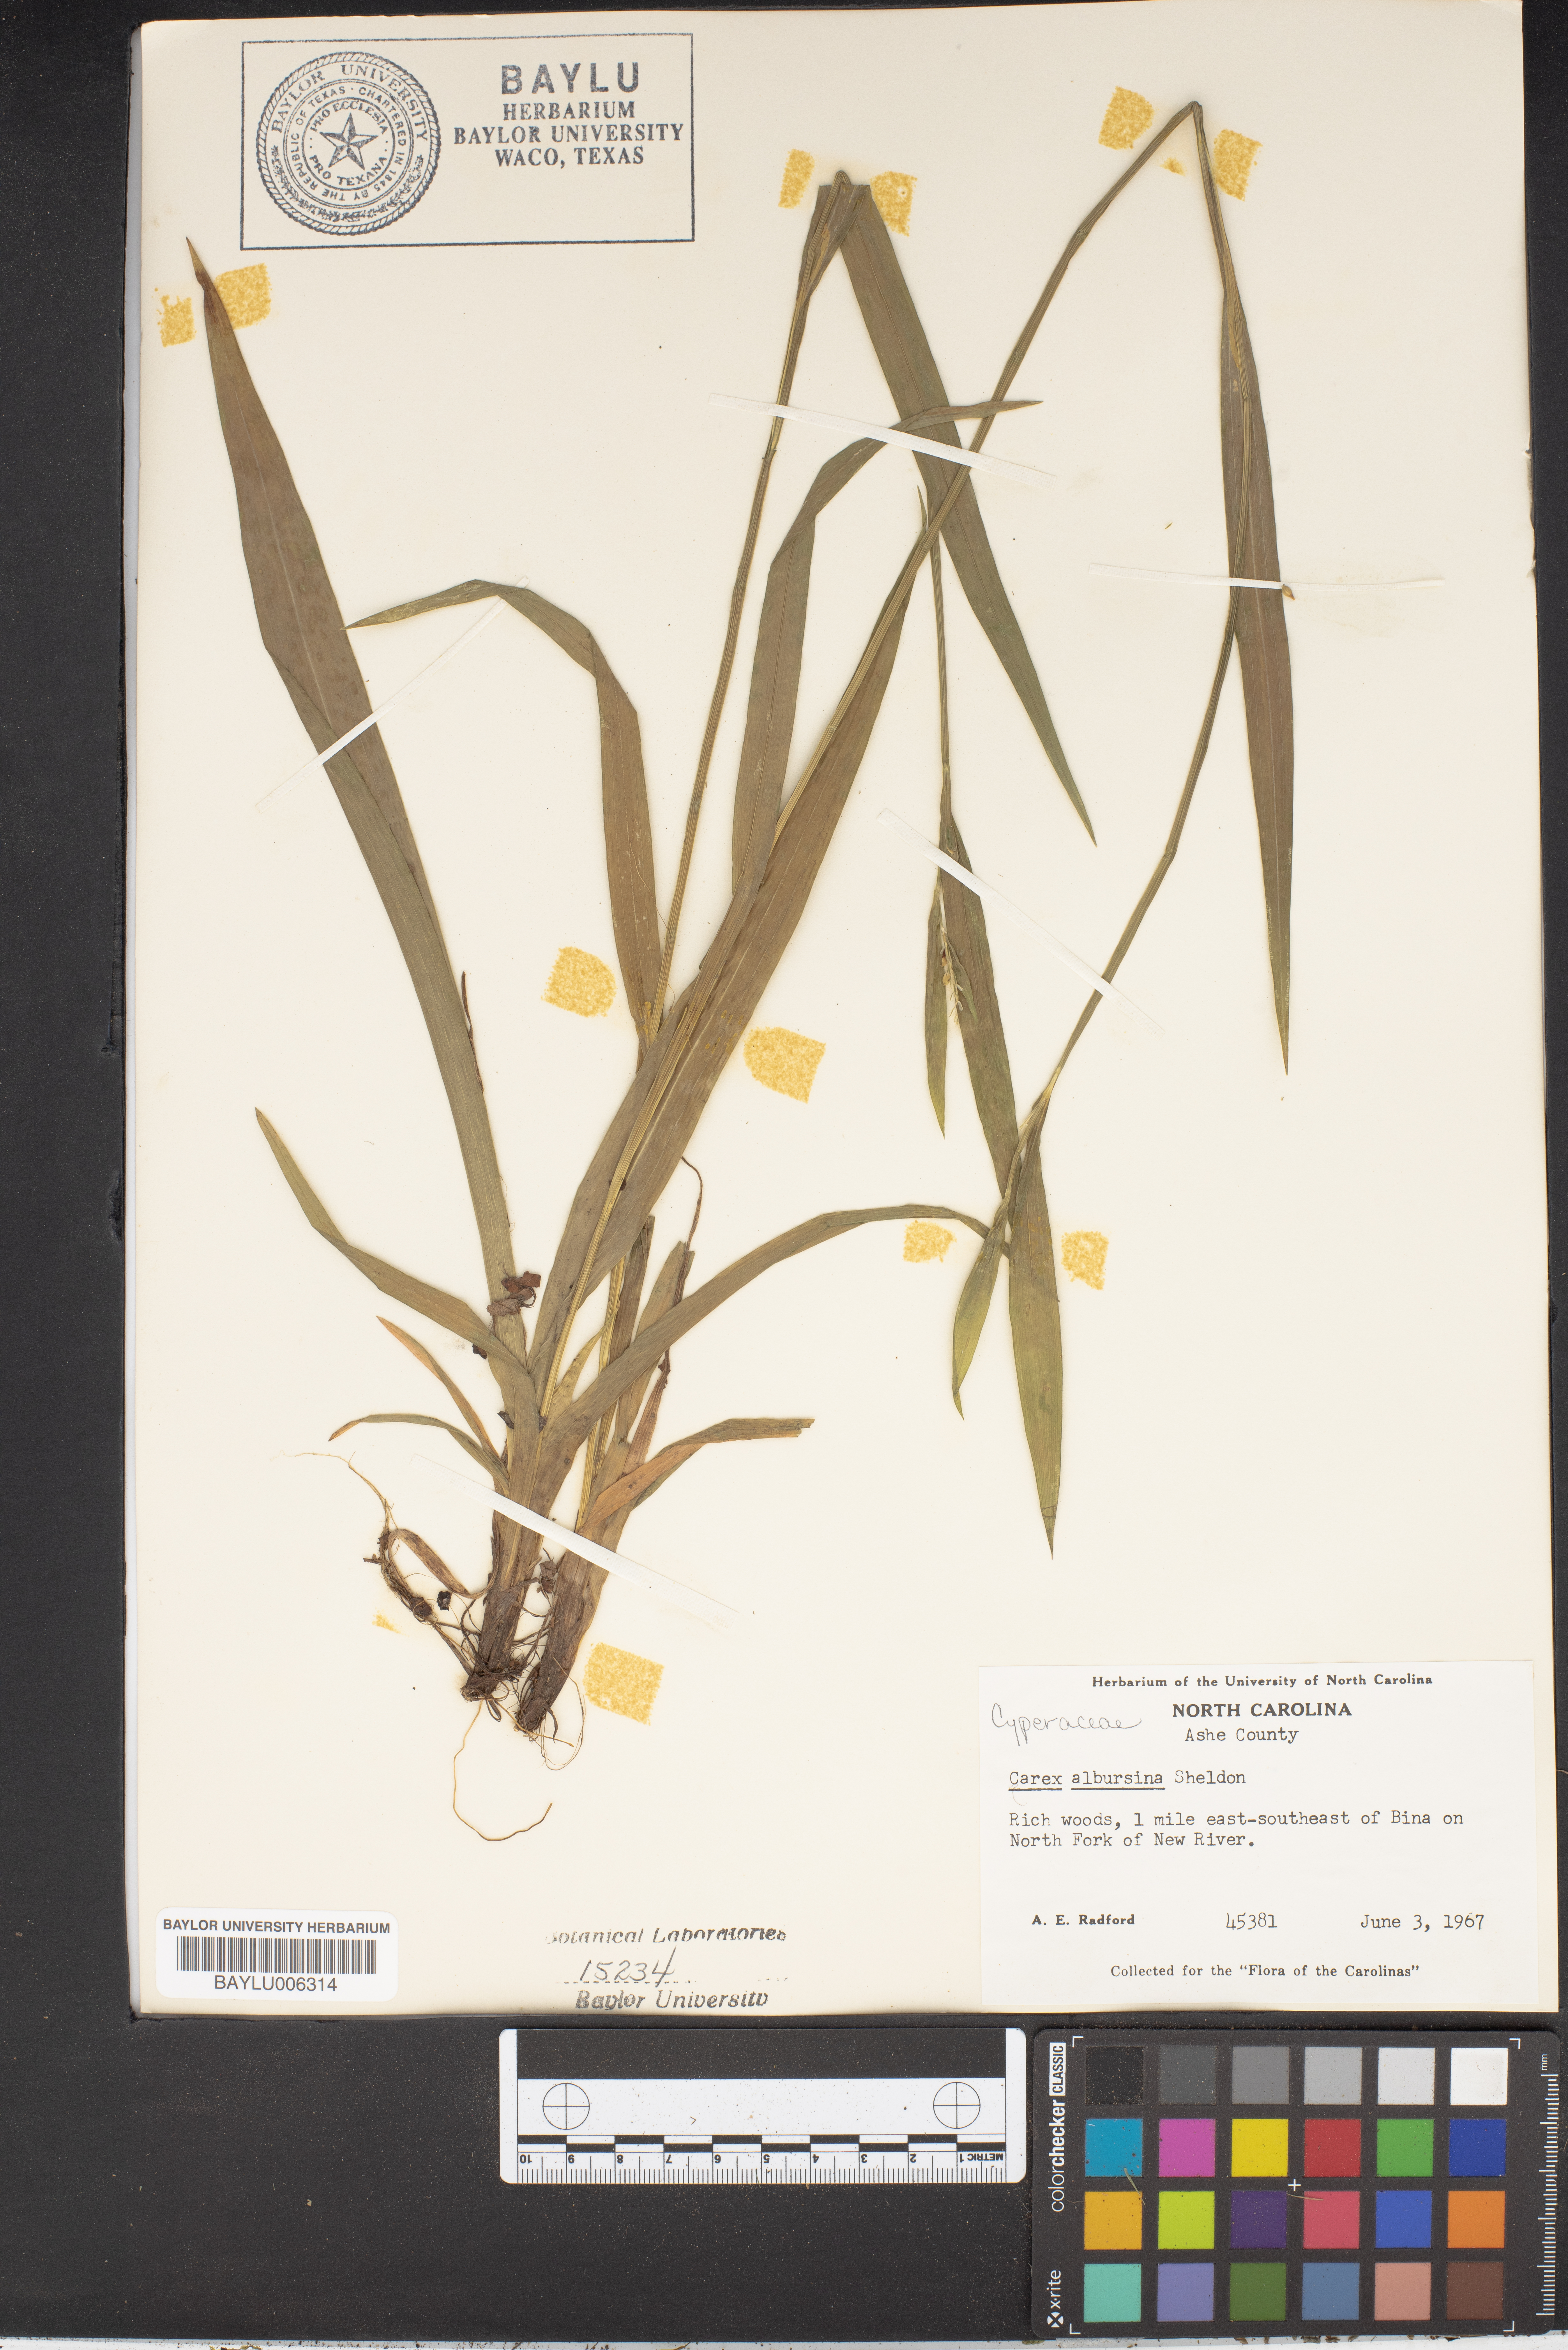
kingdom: Plantae
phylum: Tracheophyta
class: Liliopsida
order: Poales
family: Cyperaceae
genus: Carex
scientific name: Carex albursina
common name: Blunt-scale wood sedge
